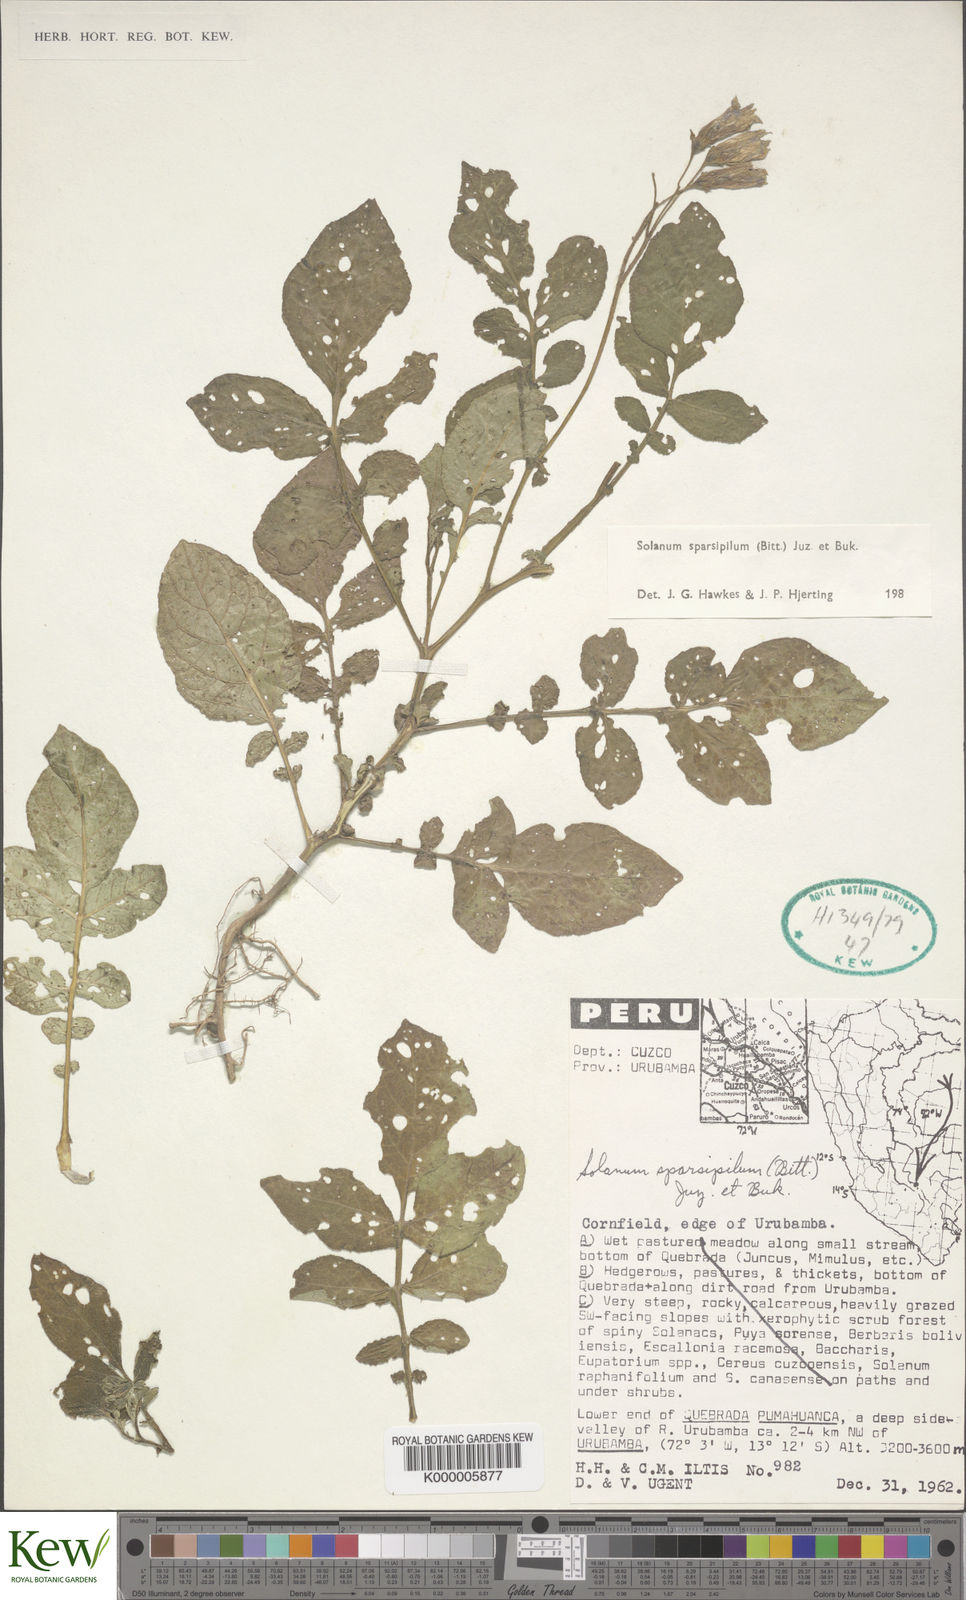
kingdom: Plantae
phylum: Tracheophyta
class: Magnoliopsida
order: Solanales
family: Solanaceae
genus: Solanum
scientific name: Solanum brevicaule
